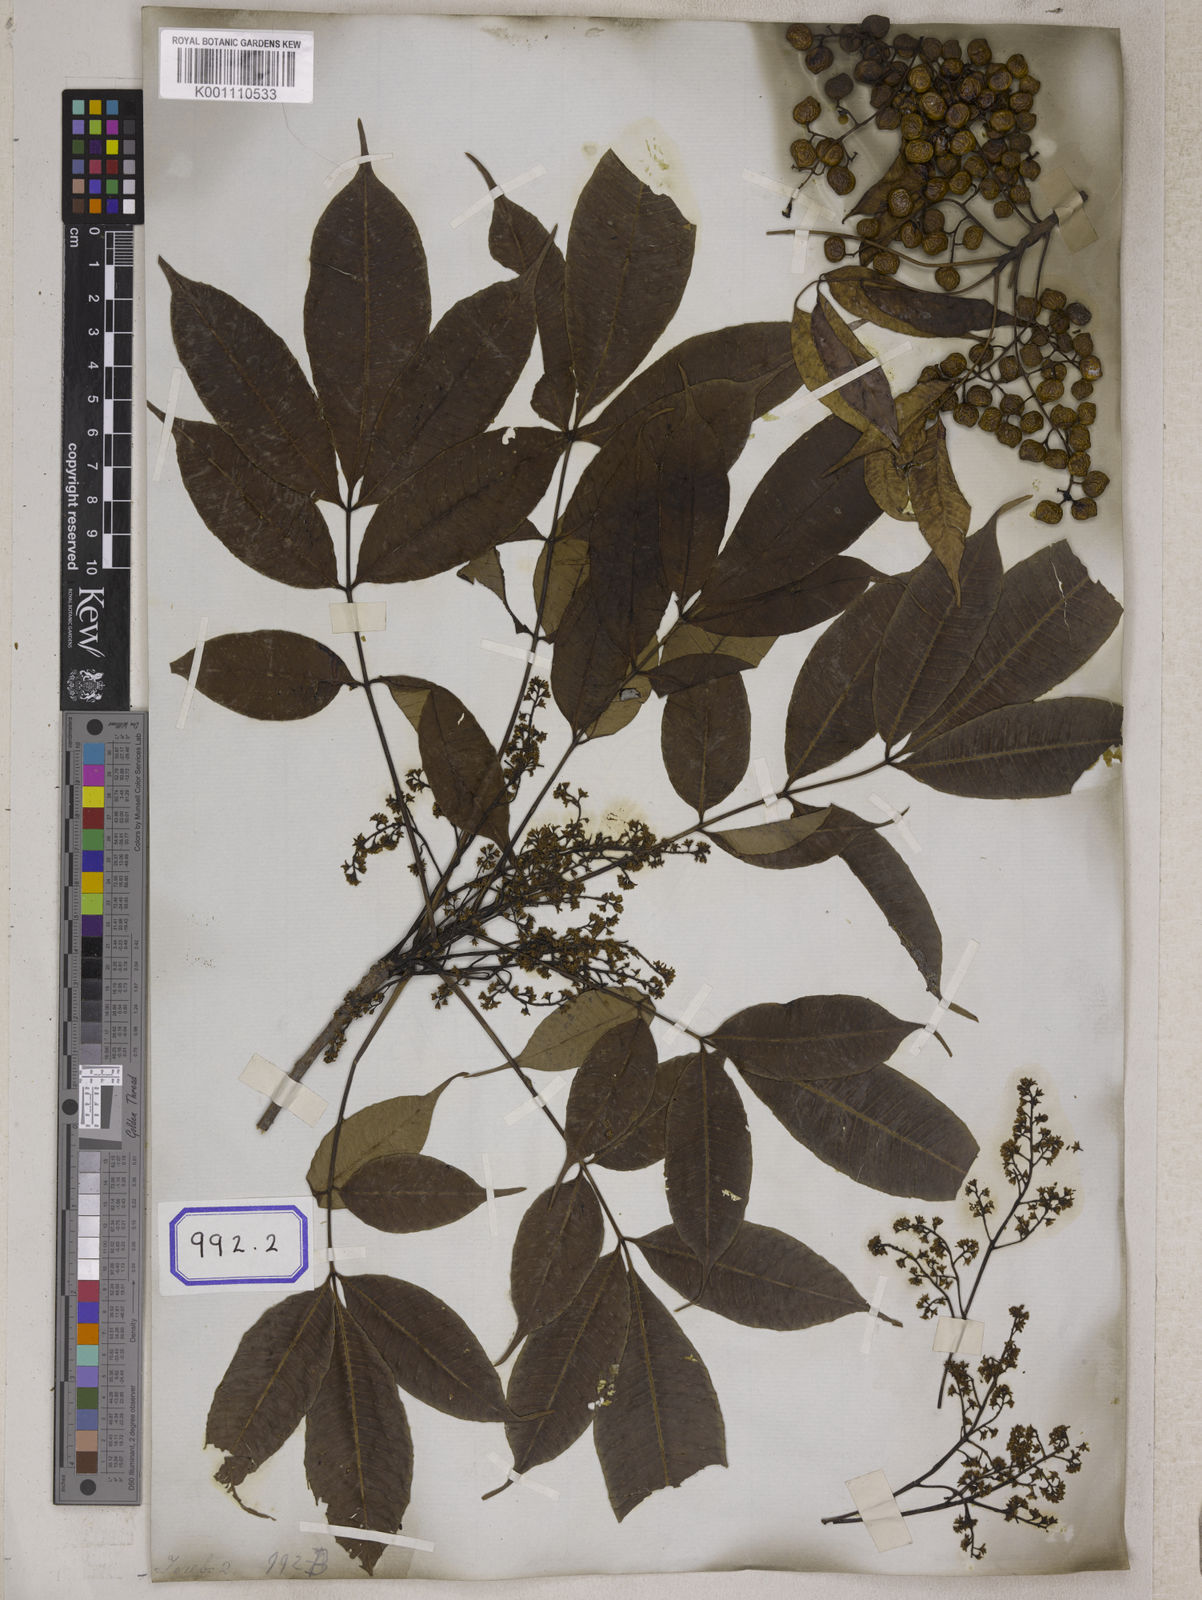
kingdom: Plantae
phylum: Tracheophyta
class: Magnoliopsida
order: Sapindales
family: Anacardiaceae
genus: Toxicodendron
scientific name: Toxicodendron succedaneum
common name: Wax tree
